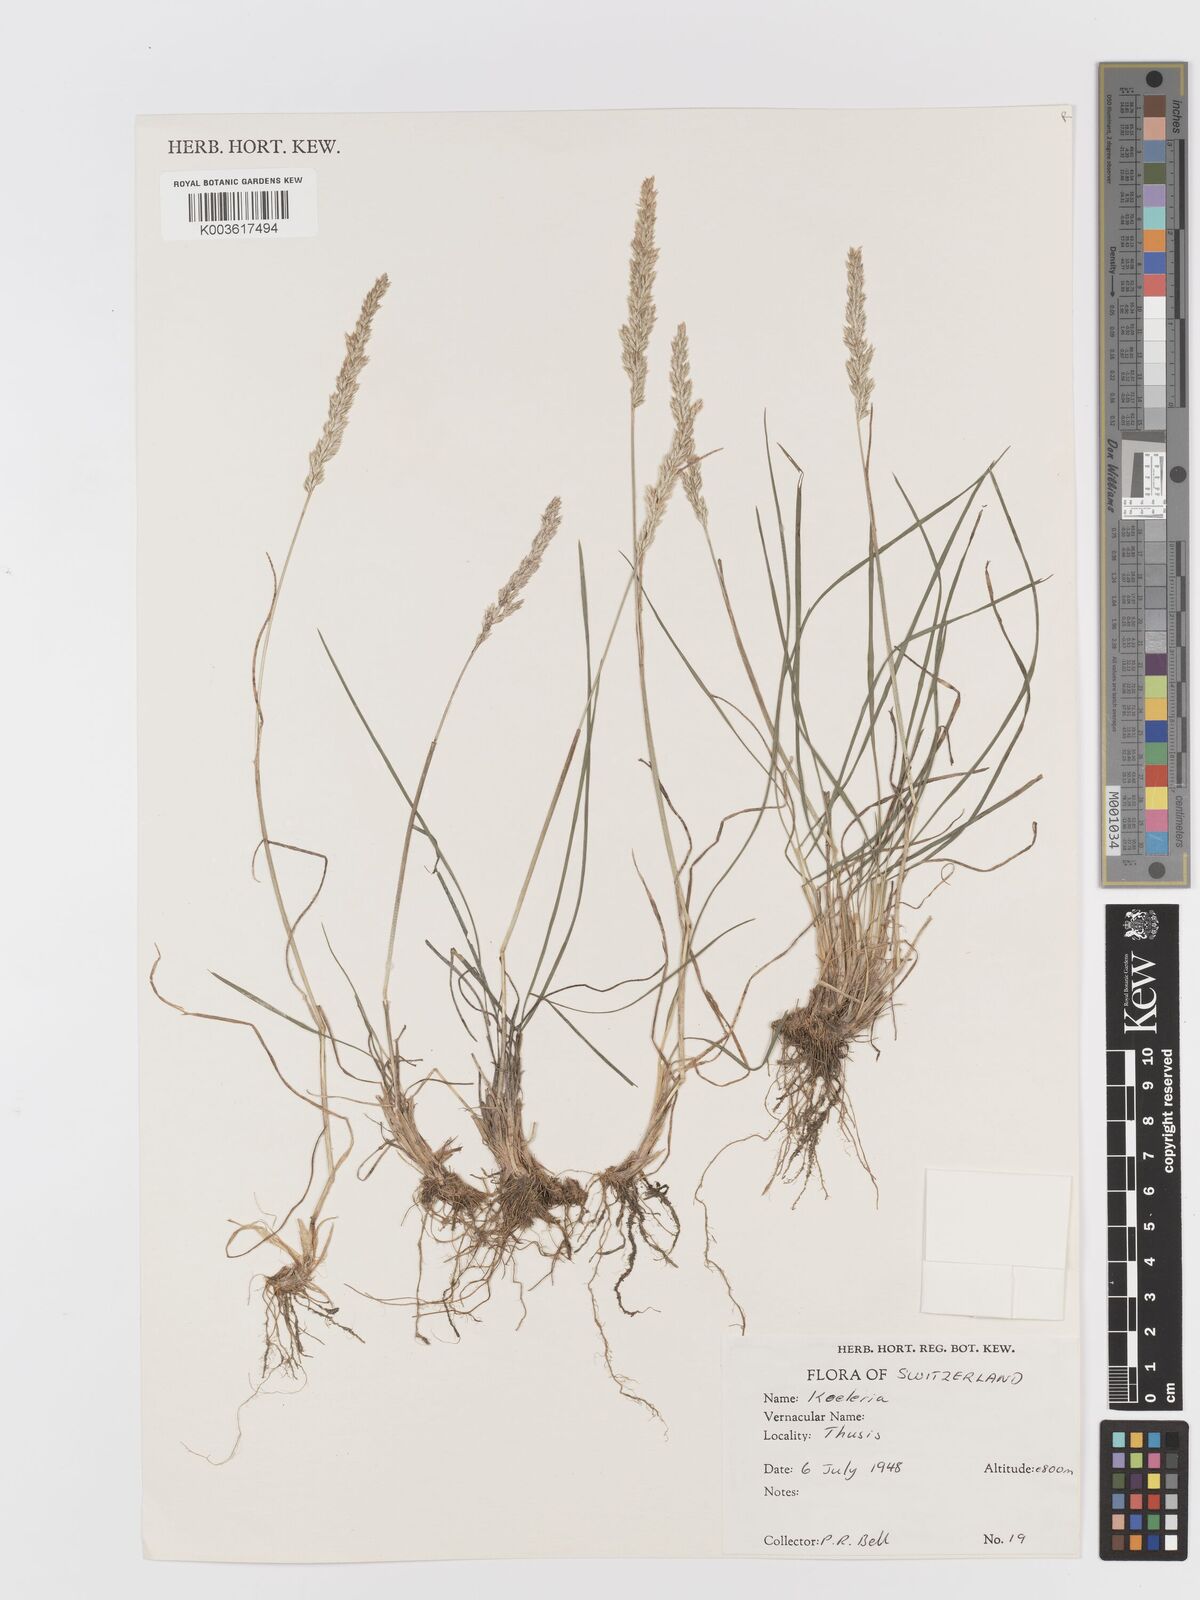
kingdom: Plantae
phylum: Tracheophyta
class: Liliopsida
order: Poales
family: Poaceae
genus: Koeleria
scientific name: Koeleria
